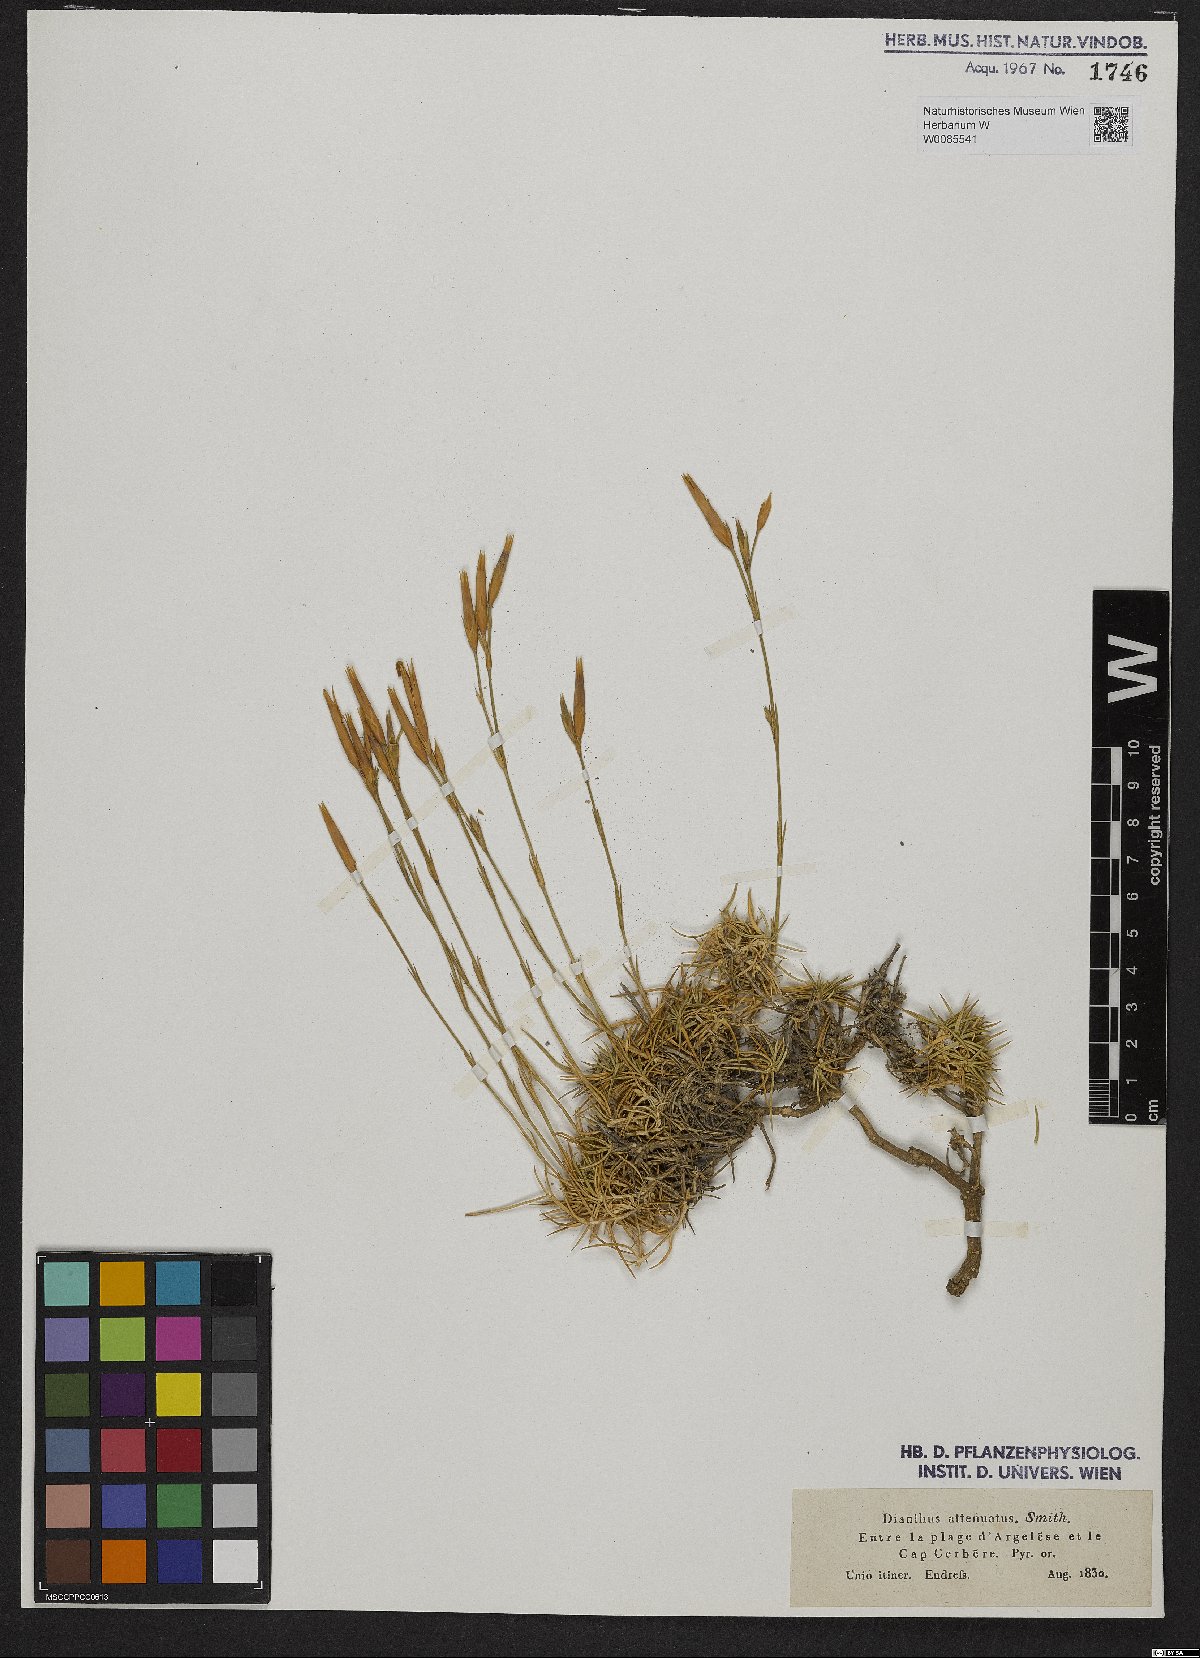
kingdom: Plantae
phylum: Tracheophyta
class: Liliopsida
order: Poales
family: Cyperaceae
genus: Carex
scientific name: Carex divulsa
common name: Grassland sedge
